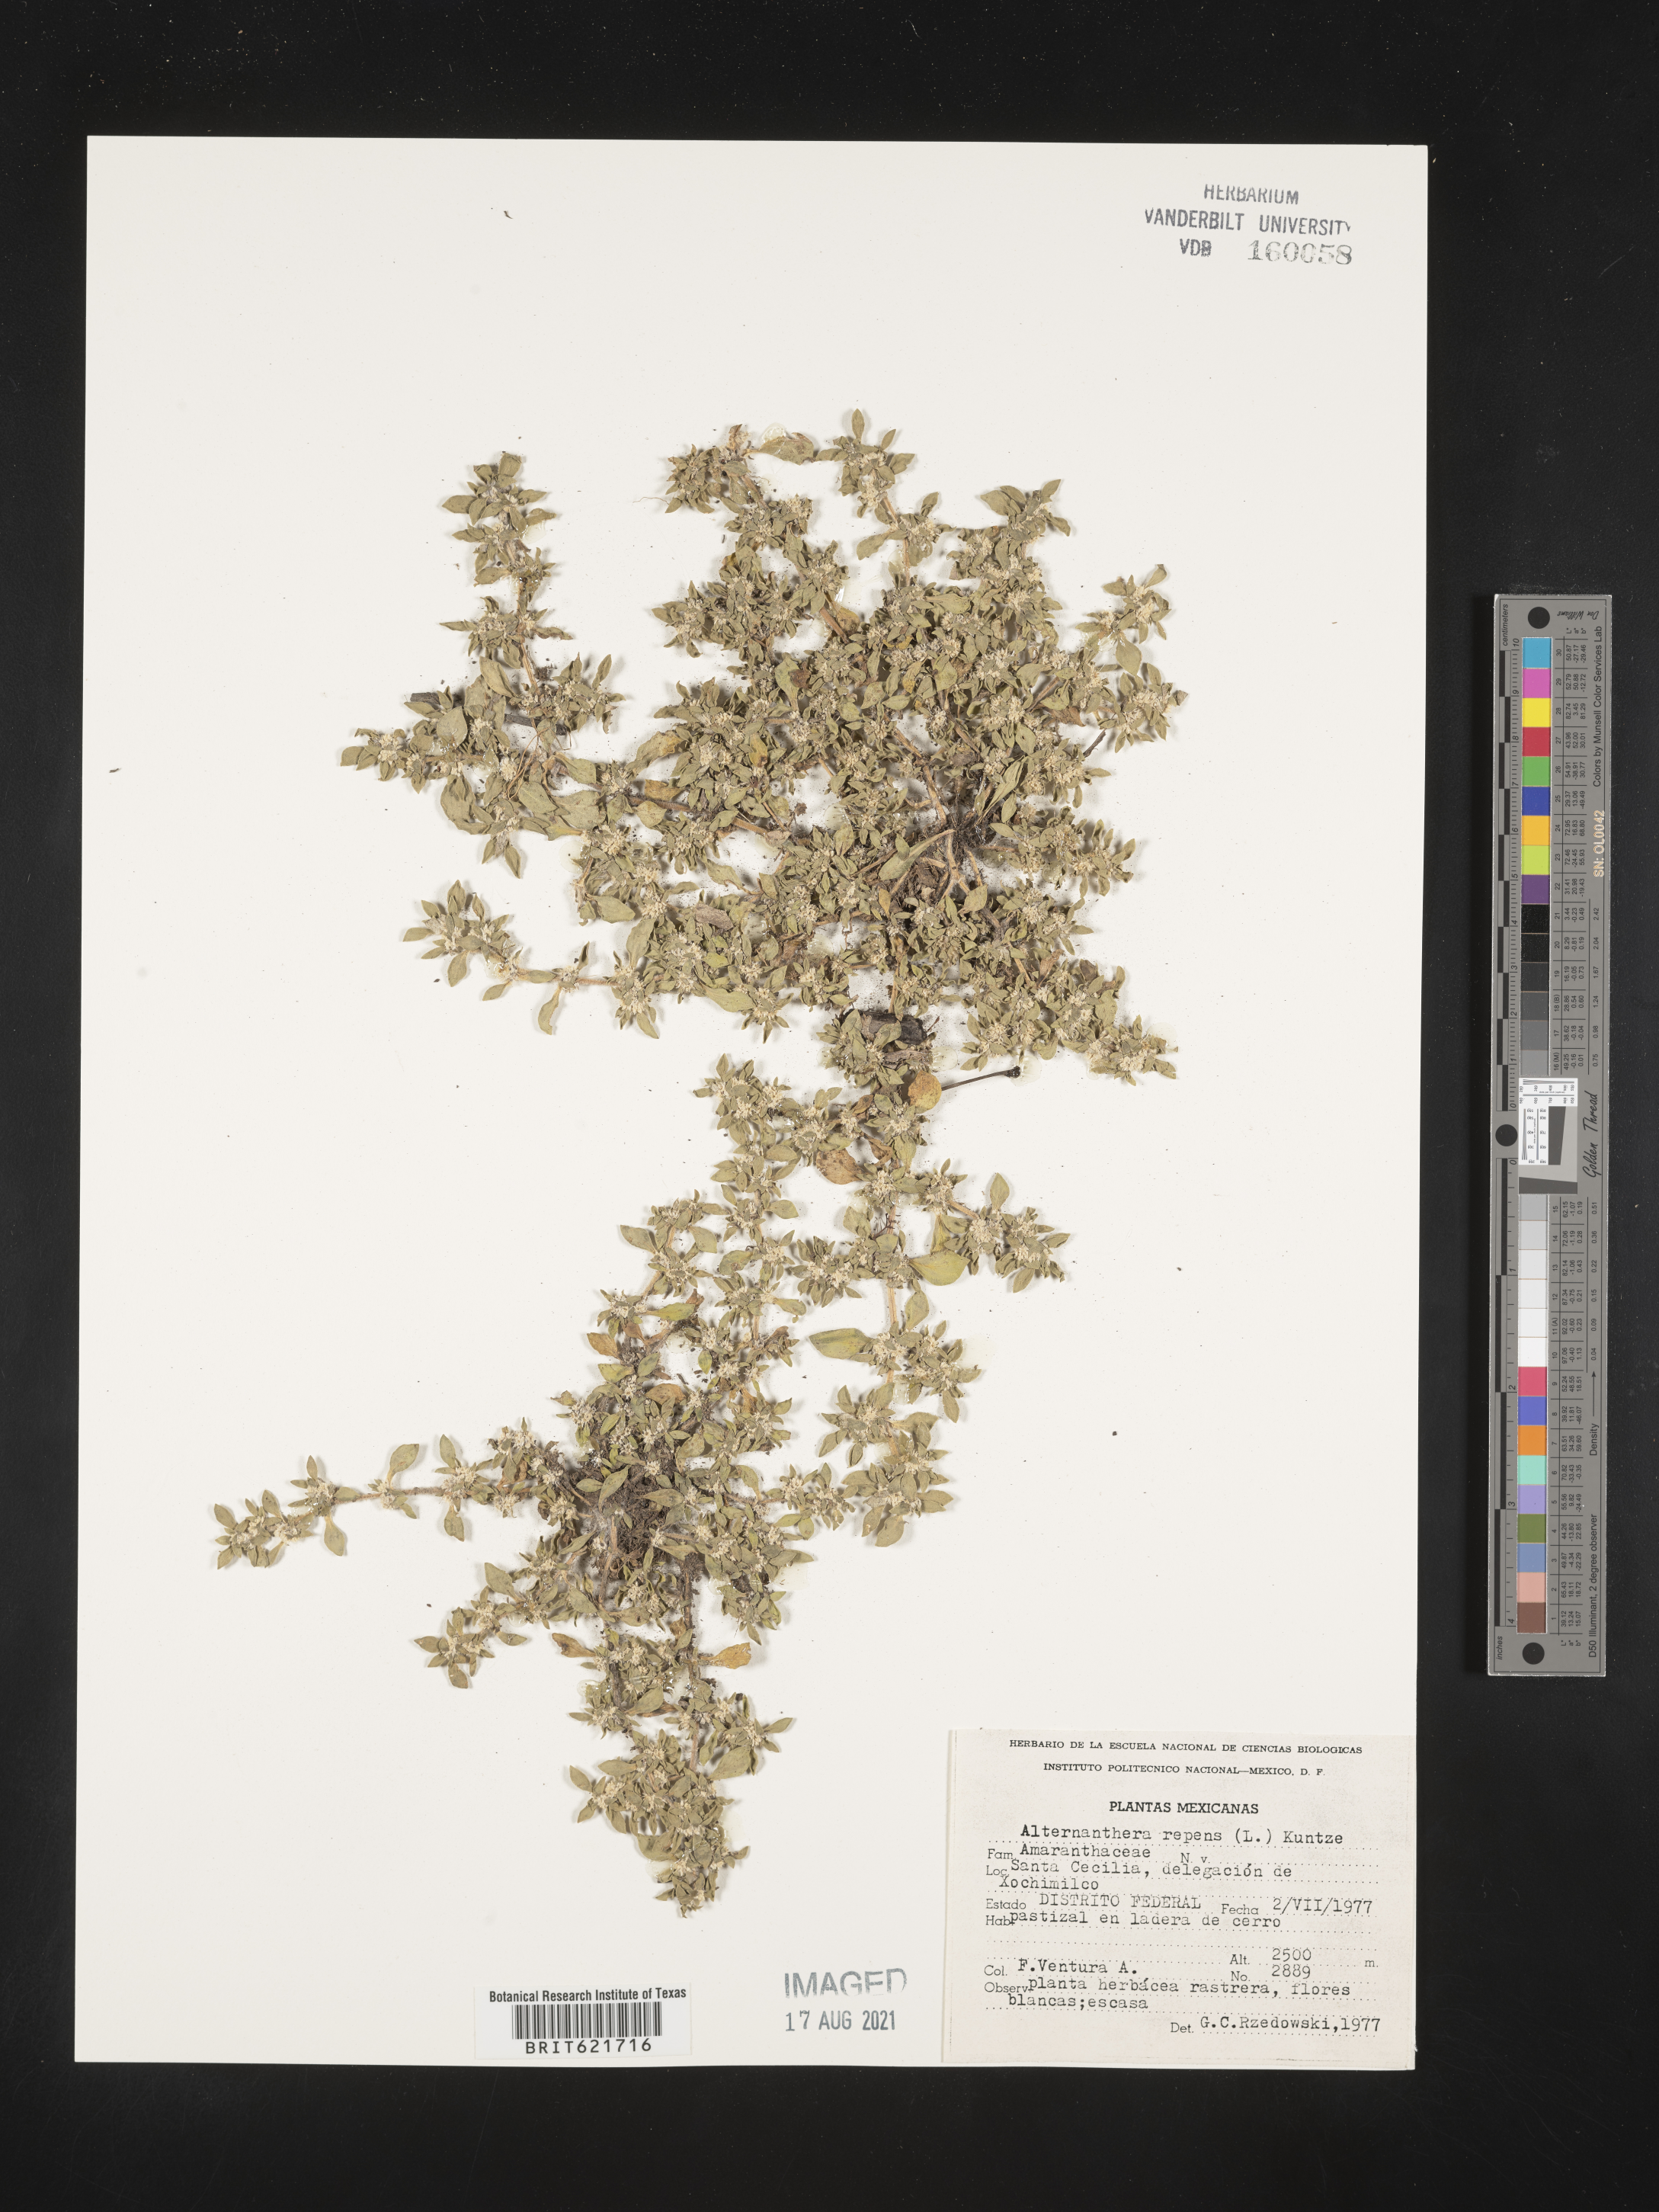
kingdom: Plantae
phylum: Tracheophyta
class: Magnoliopsida
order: Caryophyllales
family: Amaranthaceae
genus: Alternanthera
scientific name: Alternanthera
